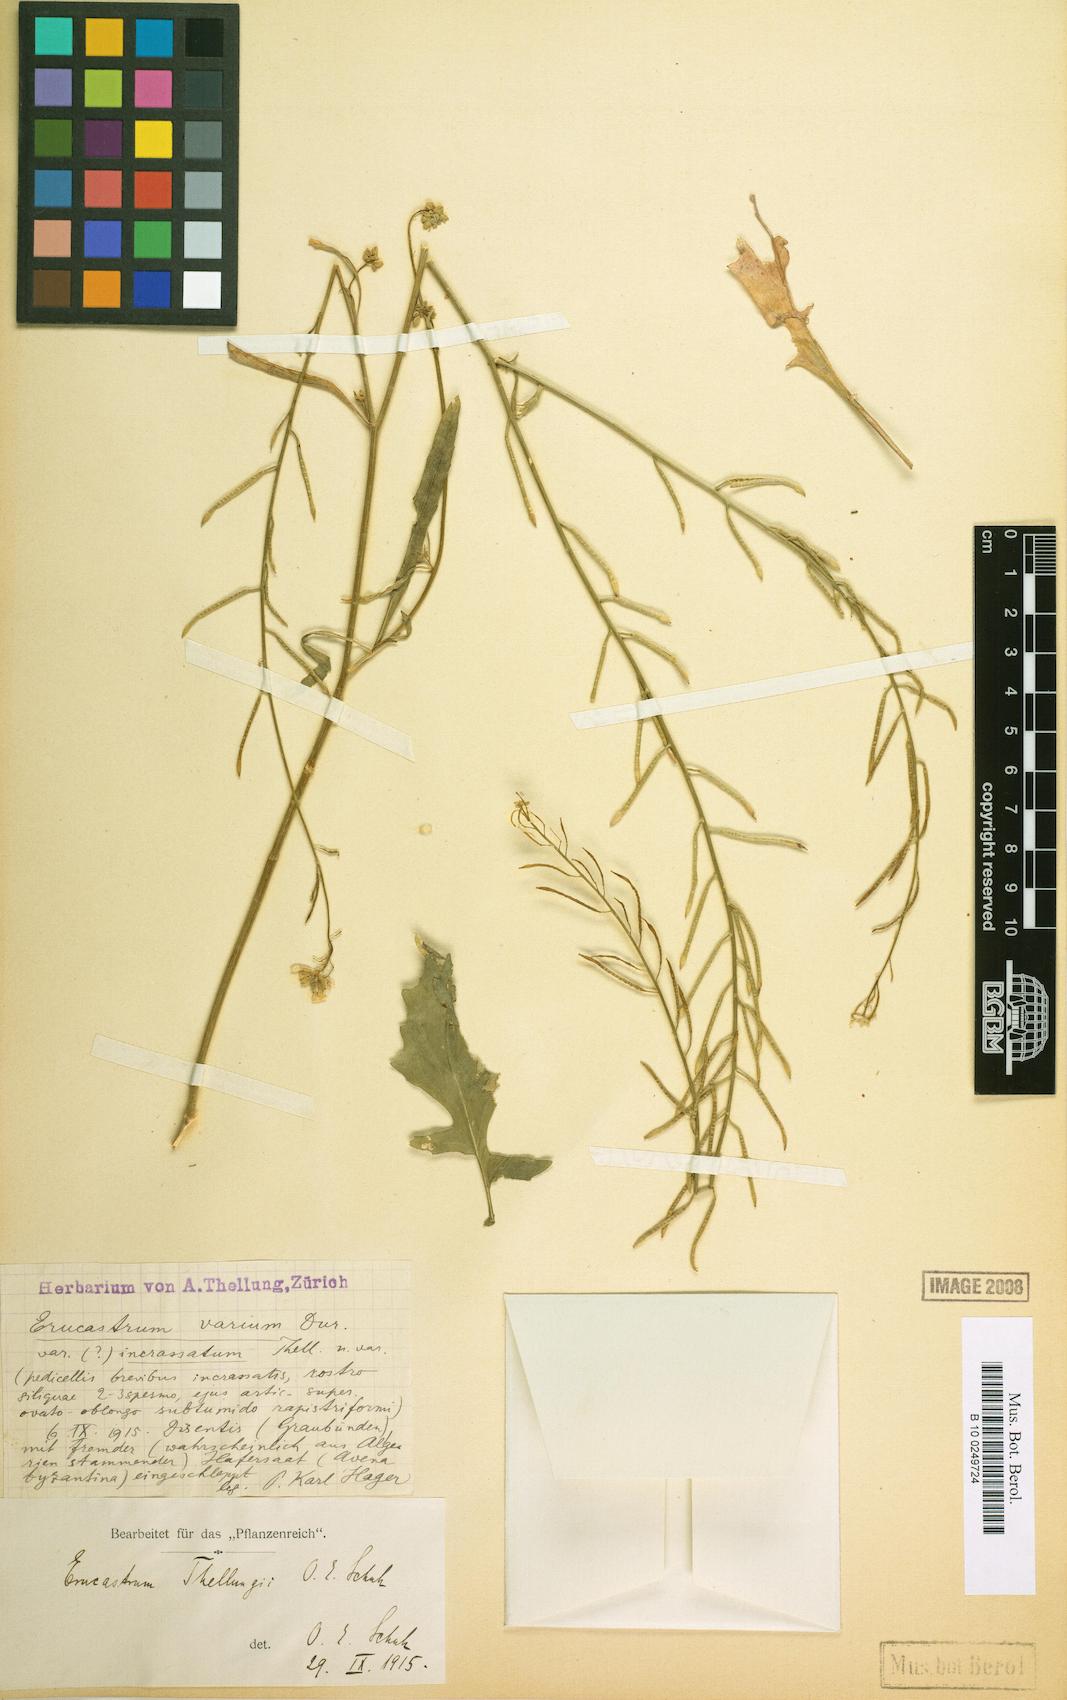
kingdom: Plantae
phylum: Tracheophyta
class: Magnoliopsida
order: Brassicales
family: Brassicaceae
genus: Hirschfeldia
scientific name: Hirschfeldia incana
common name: Hoary mustard
